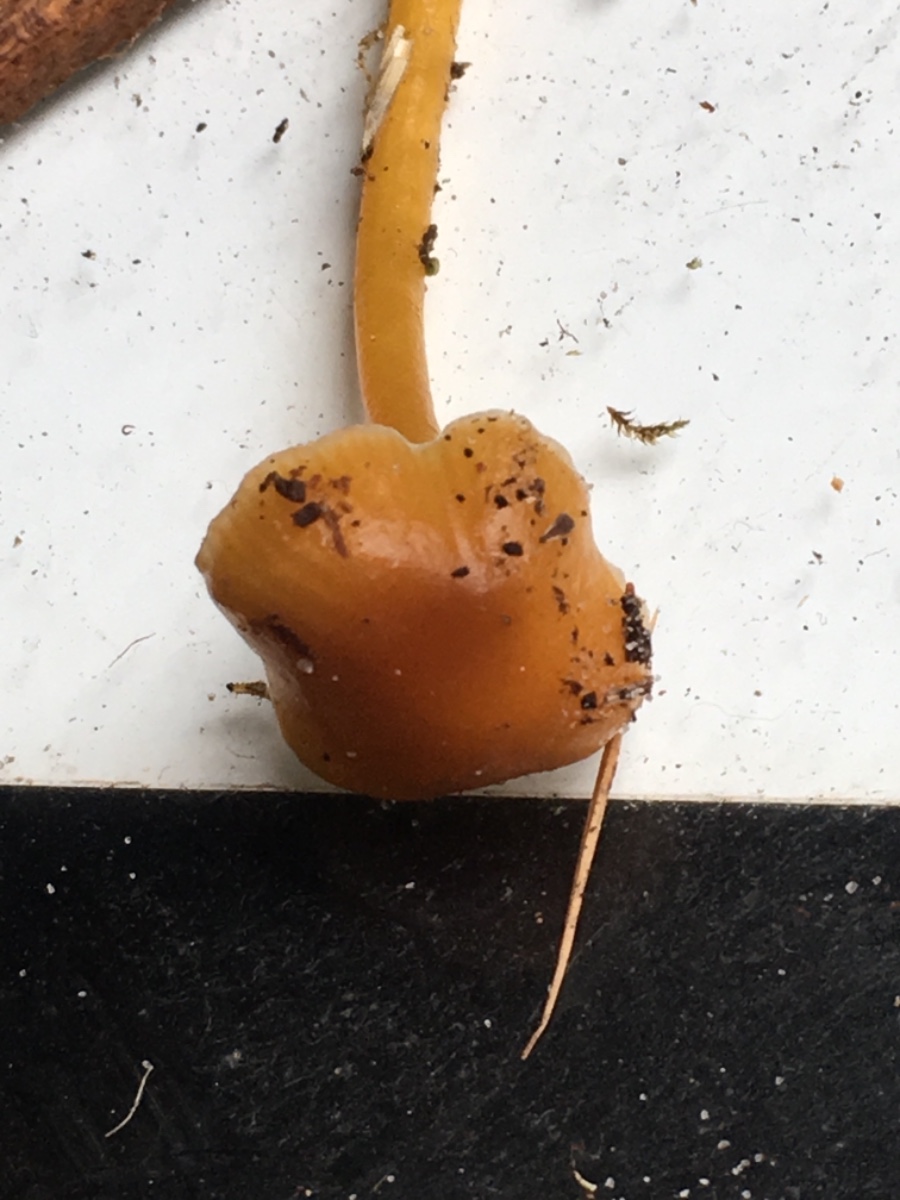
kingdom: Fungi
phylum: Basidiomycota
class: Agaricomycetes
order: Agaricales
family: Hygrophoraceae
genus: Gliophorus
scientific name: Gliophorus laetus
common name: brusk-vokshat
